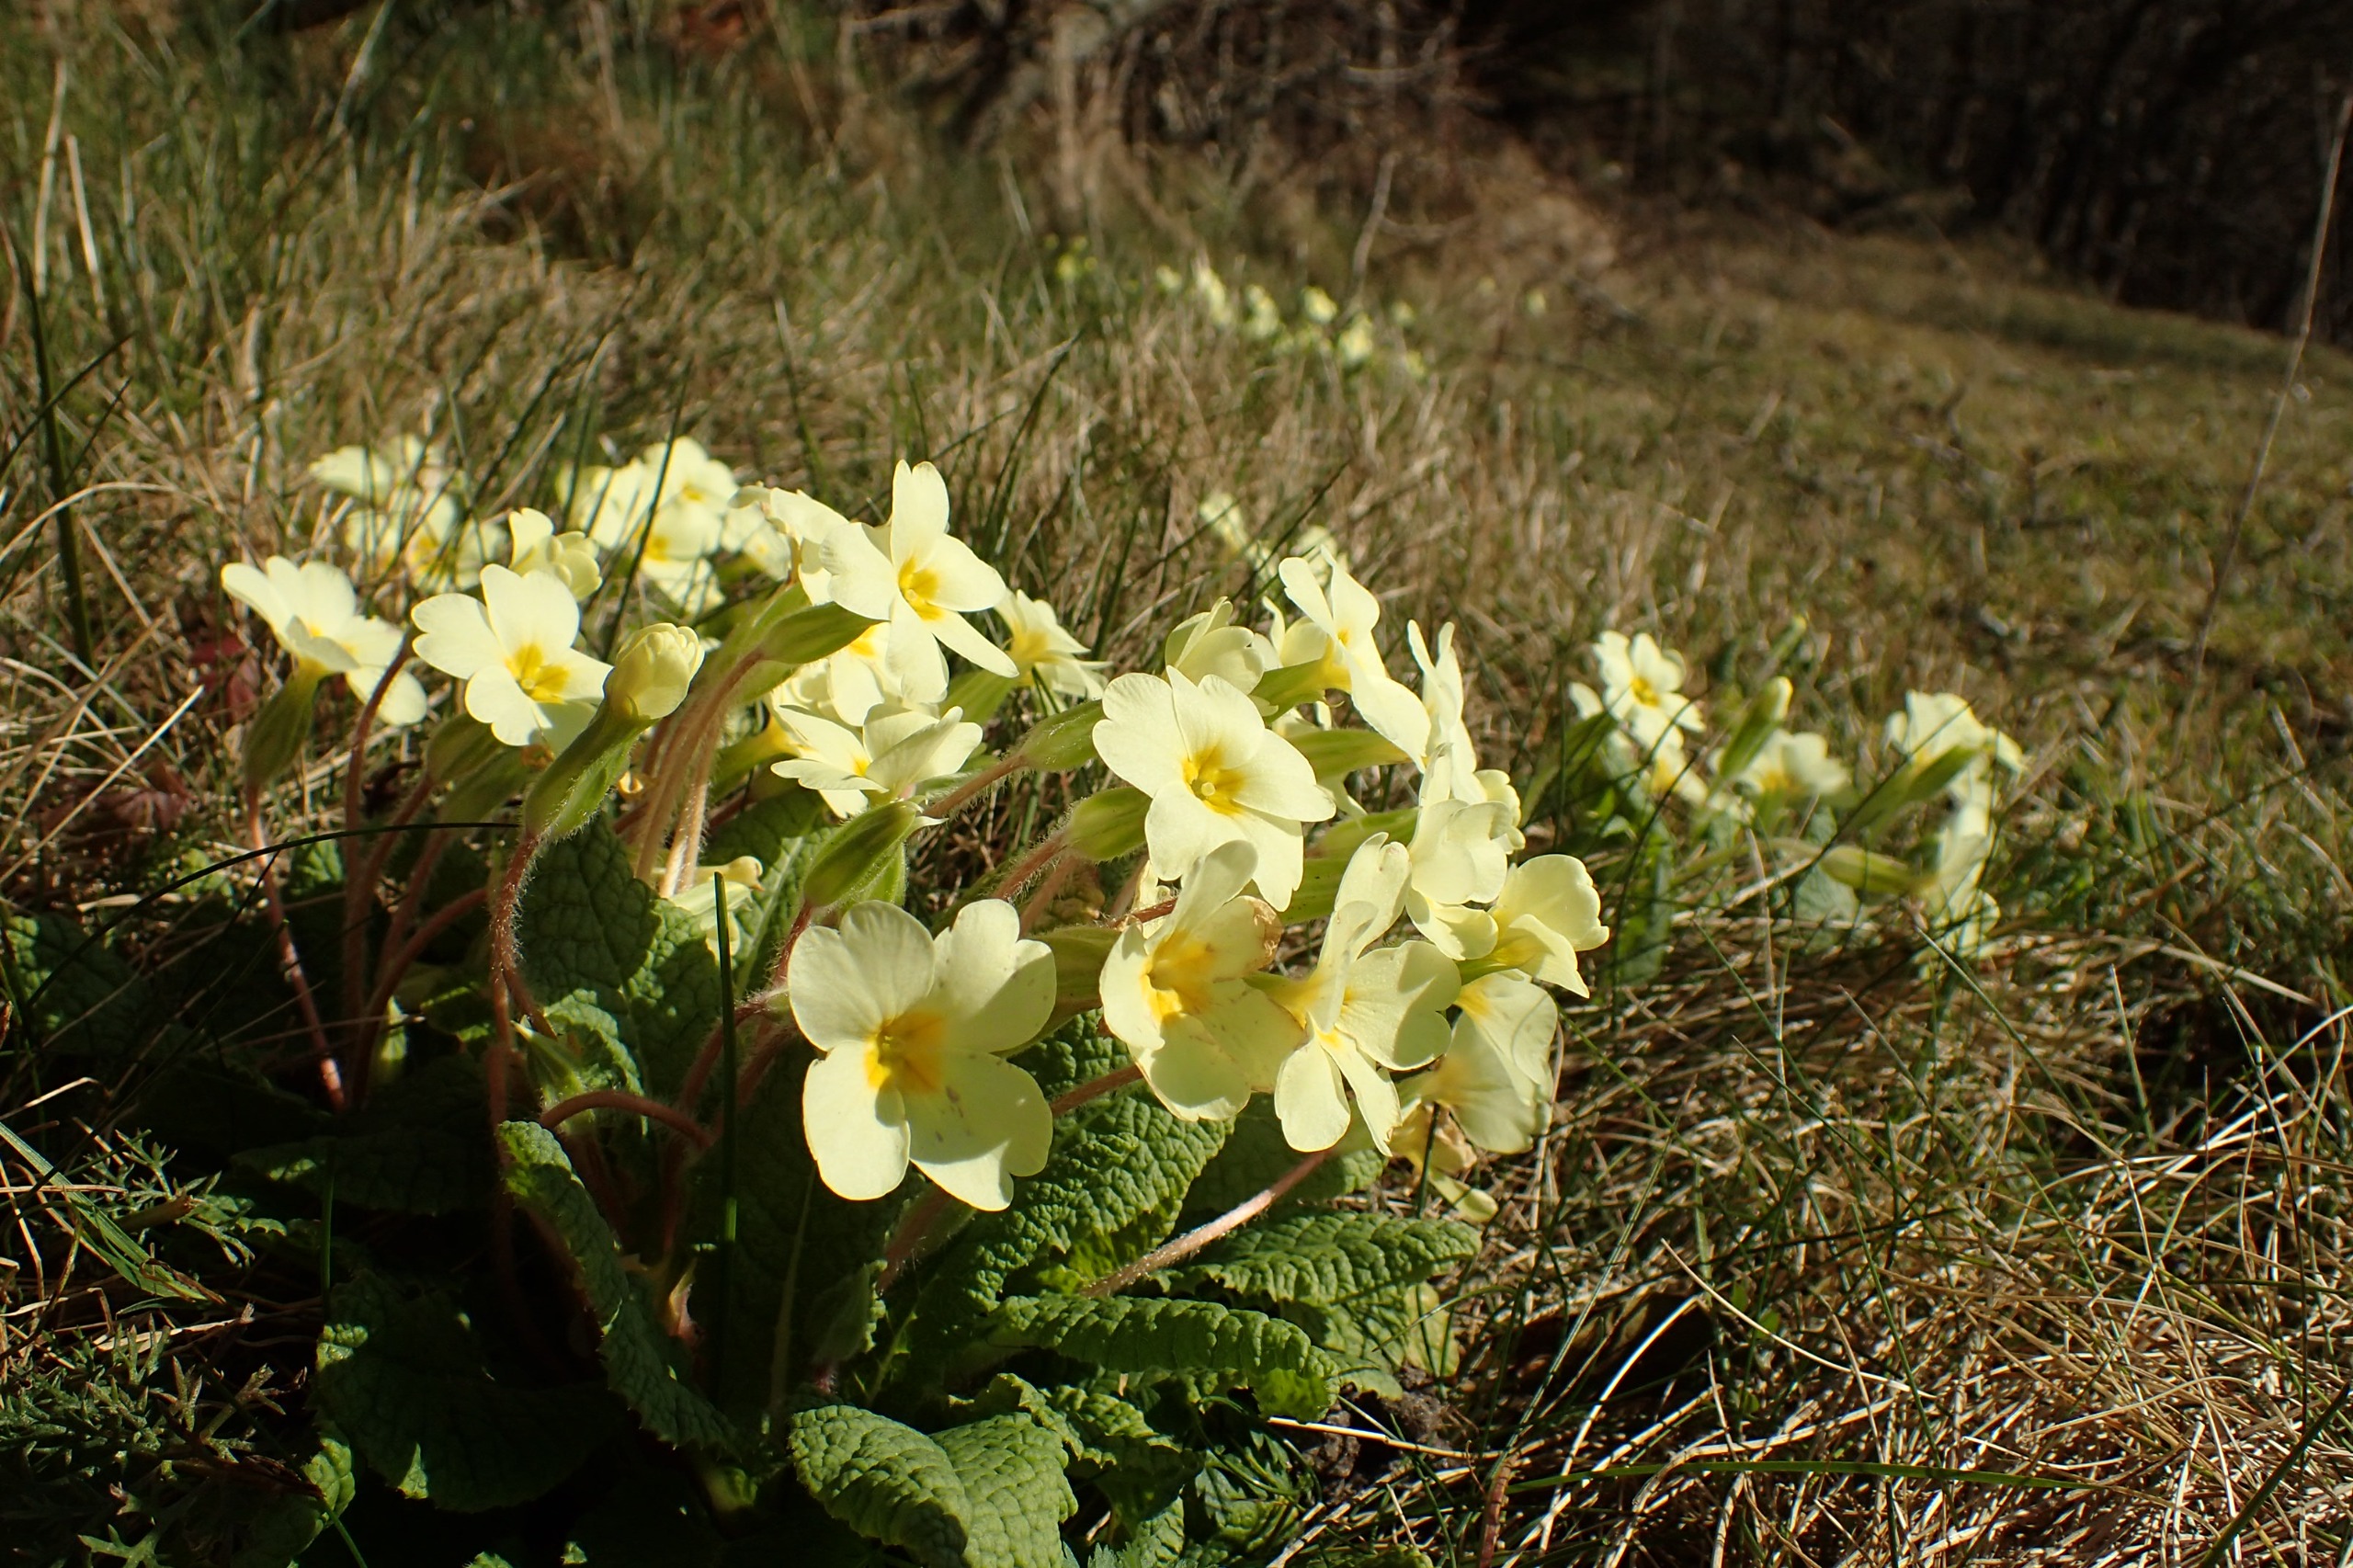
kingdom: Plantae
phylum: Tracheophyta
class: Magnoliopsida
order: Ericales
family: Primulaceae
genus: Primula
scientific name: Primula vulgaris
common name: Storblomstret kodriver
